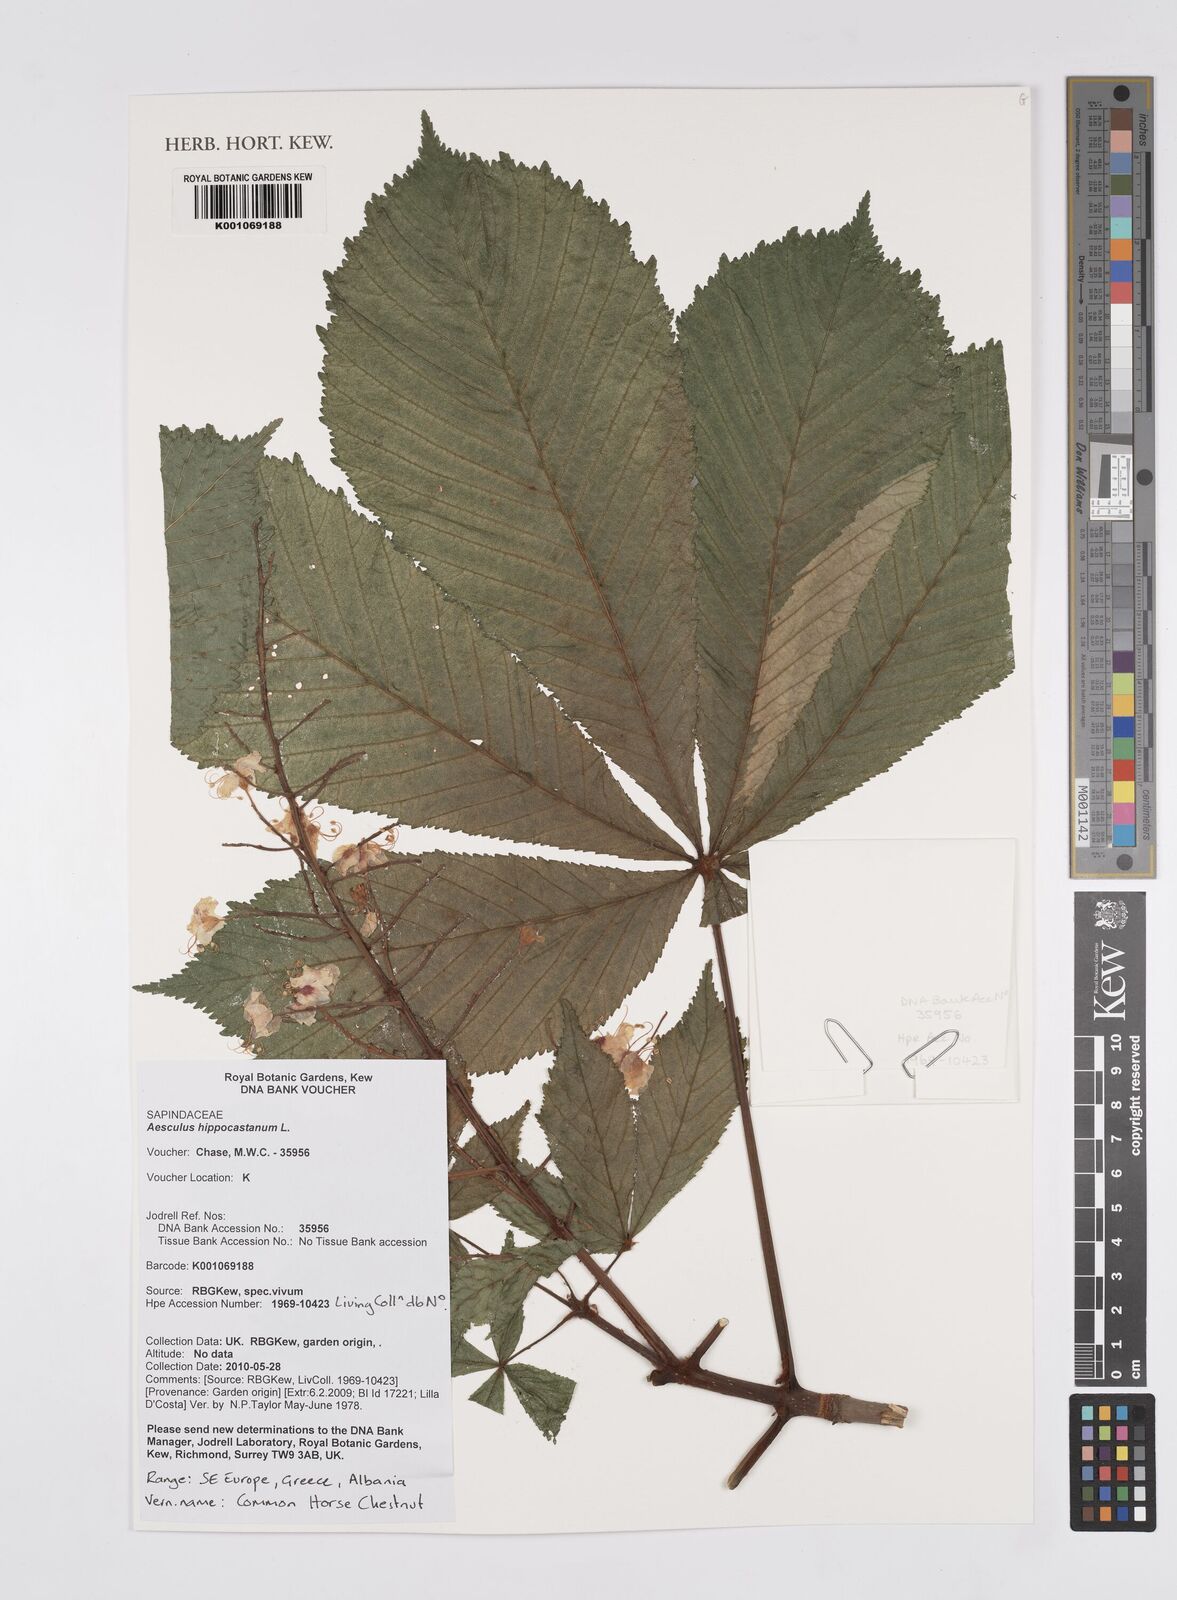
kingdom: Plantae
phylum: Tracheophyta
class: Magnoliopsida
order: Sapindales
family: Sapindaceae
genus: Aesculus
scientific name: Aesculus hippocastanum
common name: Horse-chestnut
